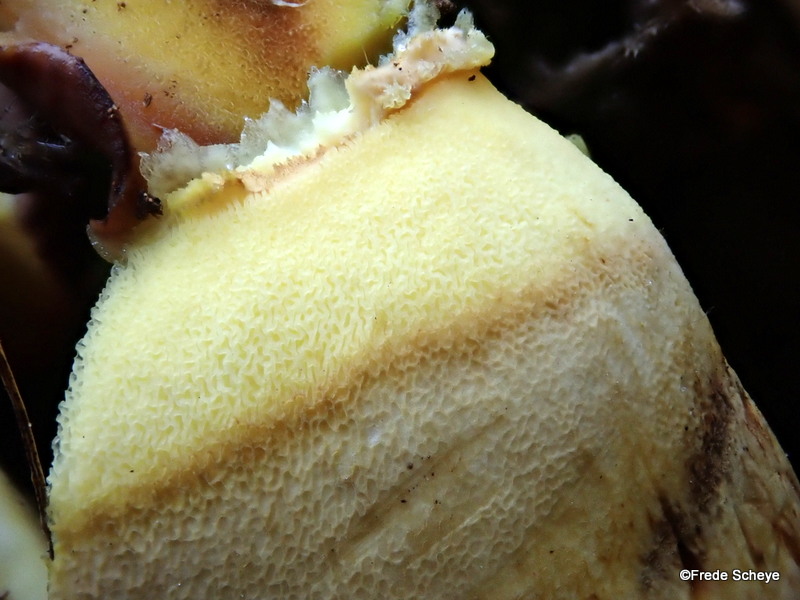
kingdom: Fungi
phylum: Basidiomycota
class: Agaricomycetes
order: Boletales
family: Boletaceae
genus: Butyriboletus
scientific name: Butyriboletus appendiculatus
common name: tenstokket rørhat
